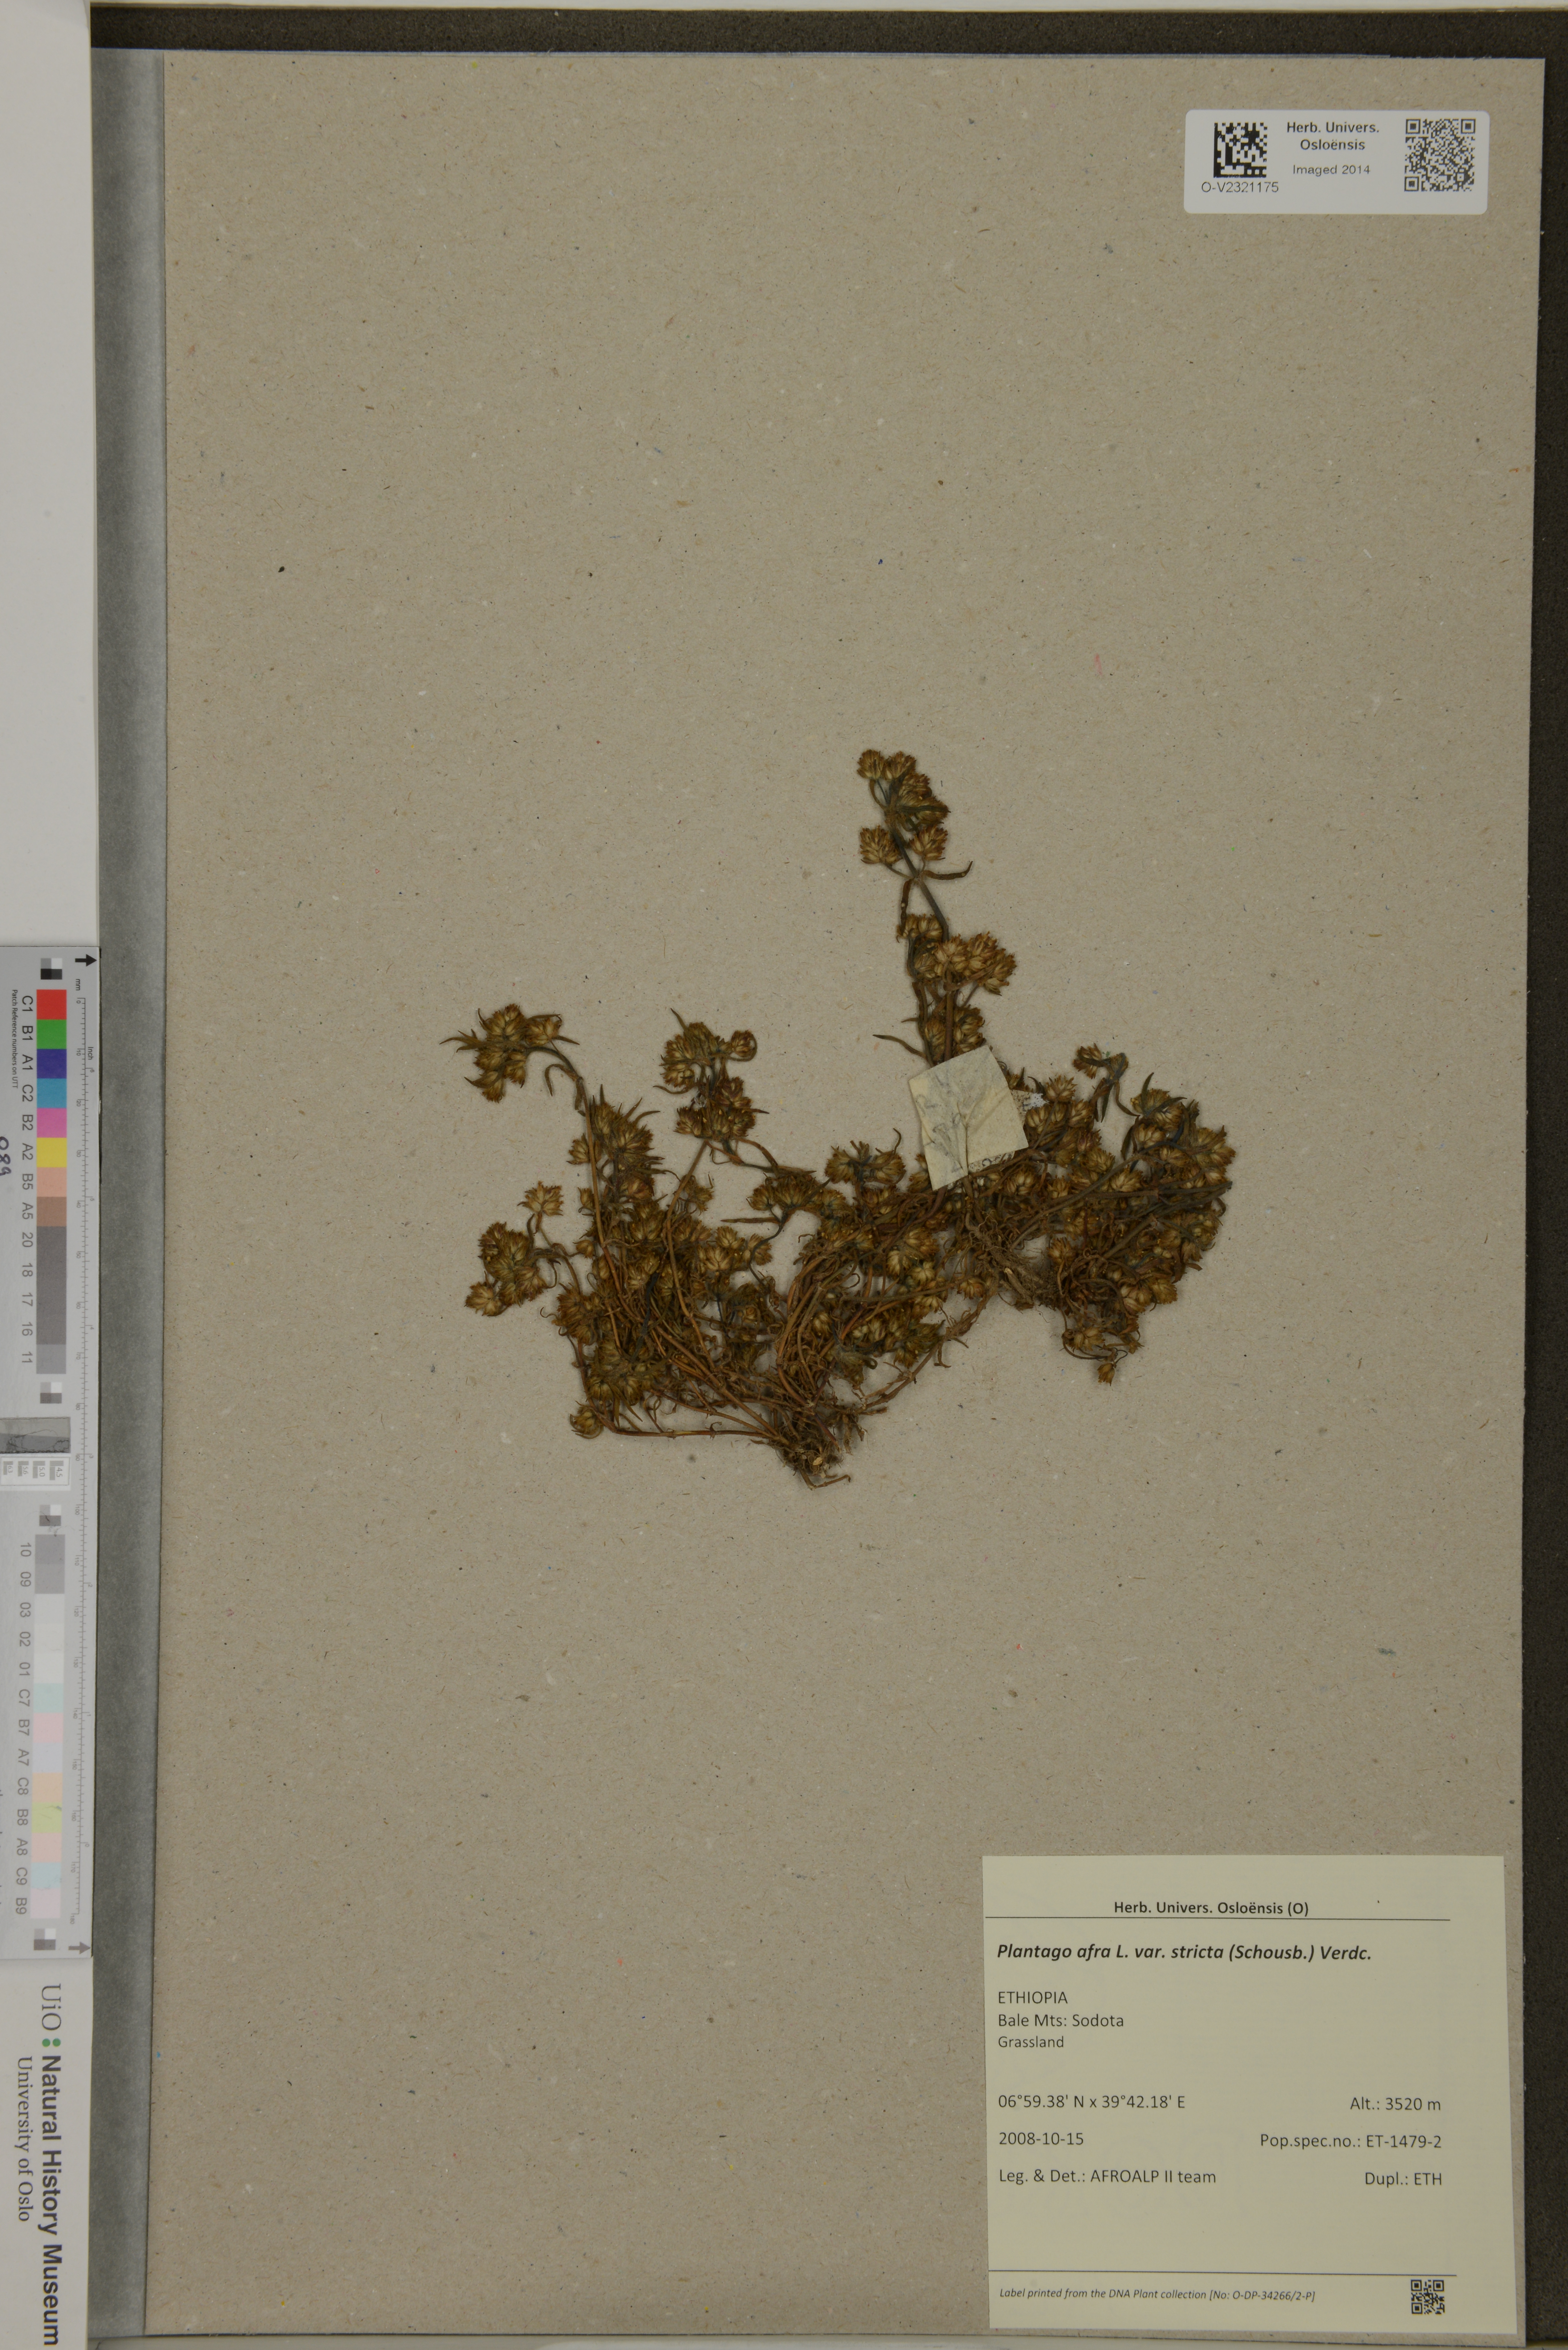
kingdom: Plantae
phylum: Tracheophyta
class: Magnoliopsida
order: Lamiales
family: Plantaginaceae
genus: Plantago
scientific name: Plantago afra
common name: Glandular plantain
